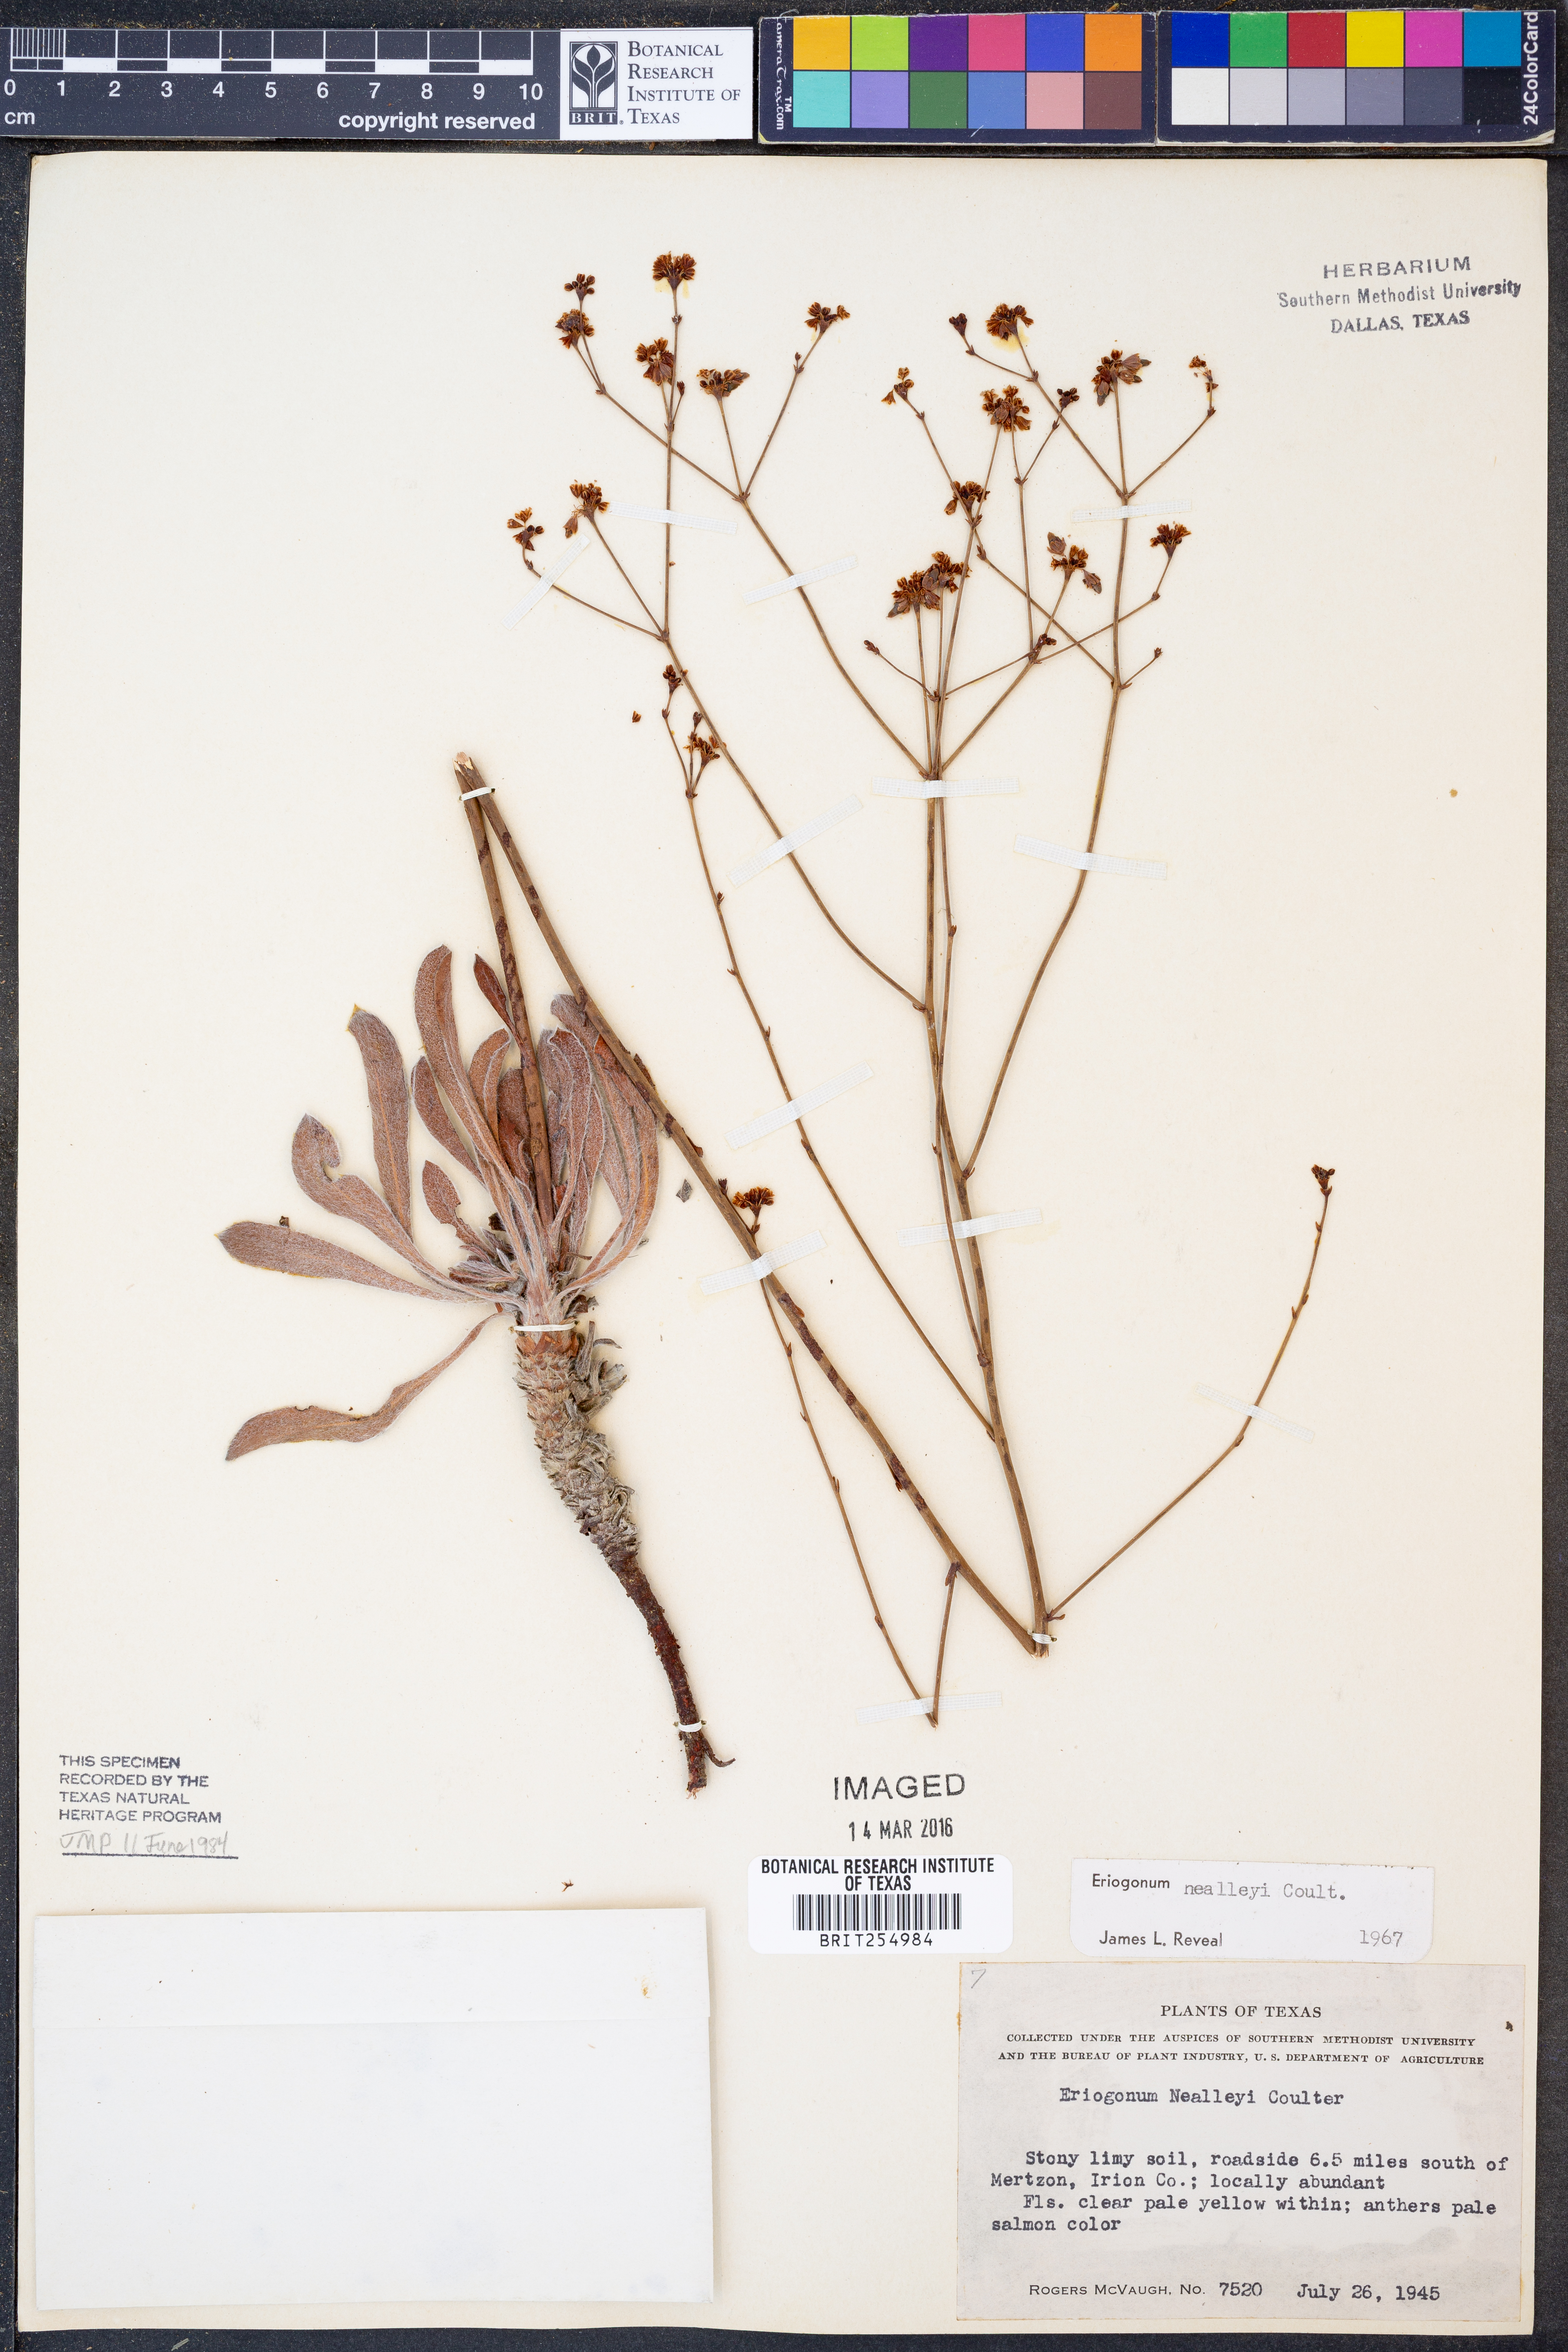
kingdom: Plantae
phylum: Tracheophyta
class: Magnoliopsida
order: Caryophyllales
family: Polygonaceae
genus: Eriogonum
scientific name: Eriogonum nealleyi
